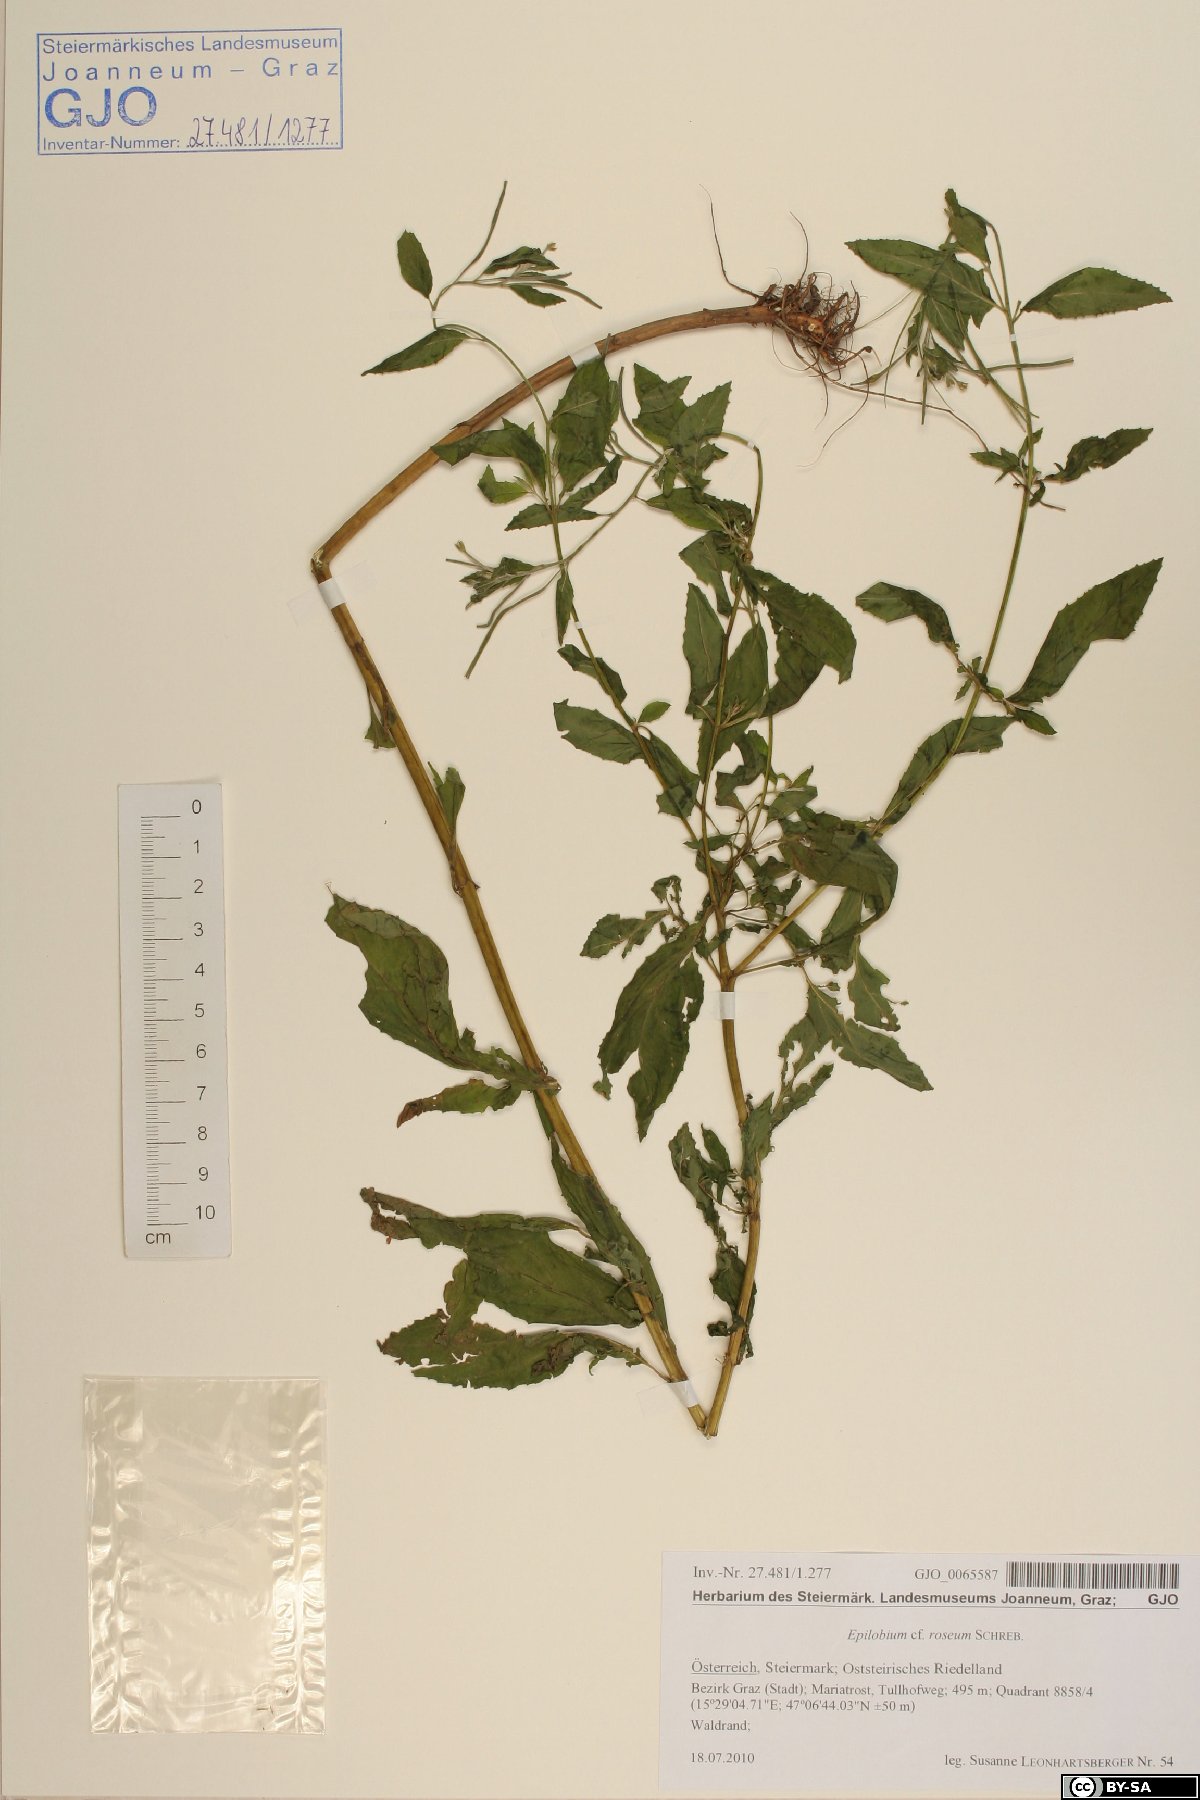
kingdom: Plantae
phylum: Tracheophyta
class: Magnoliopsida
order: Myrtales
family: Onagraceae
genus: Epilobium
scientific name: Epilobium roseum
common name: Pale willowherb
